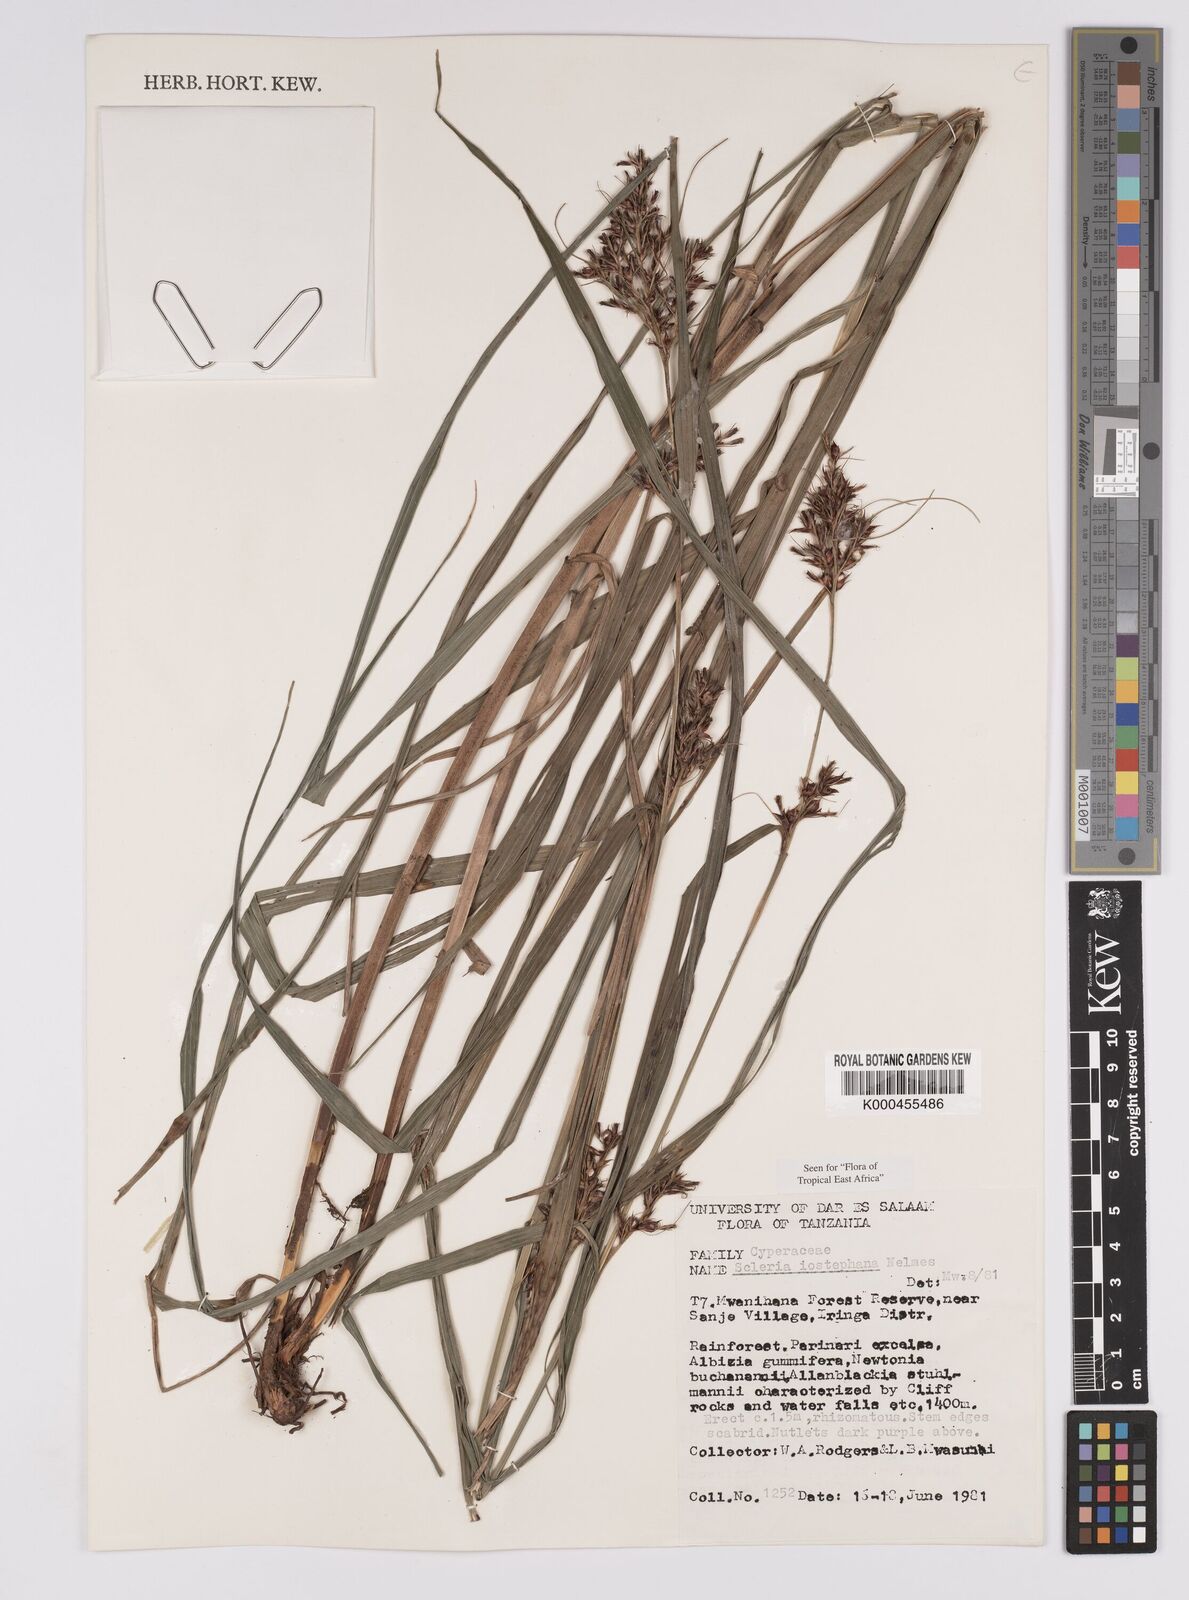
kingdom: Plantae
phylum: Tracheophyta
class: Liliopsida
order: Poales
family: Cyperaceae
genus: Scleria
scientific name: Scleria iostephana
